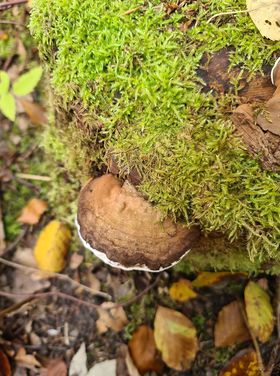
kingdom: Fungi
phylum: Basidiomycota
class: Agaricomycetes
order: Polyporales
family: Polyporaceae
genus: Ganoderma
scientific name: Ganoderma applanatum
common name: flad lakporesvamp
